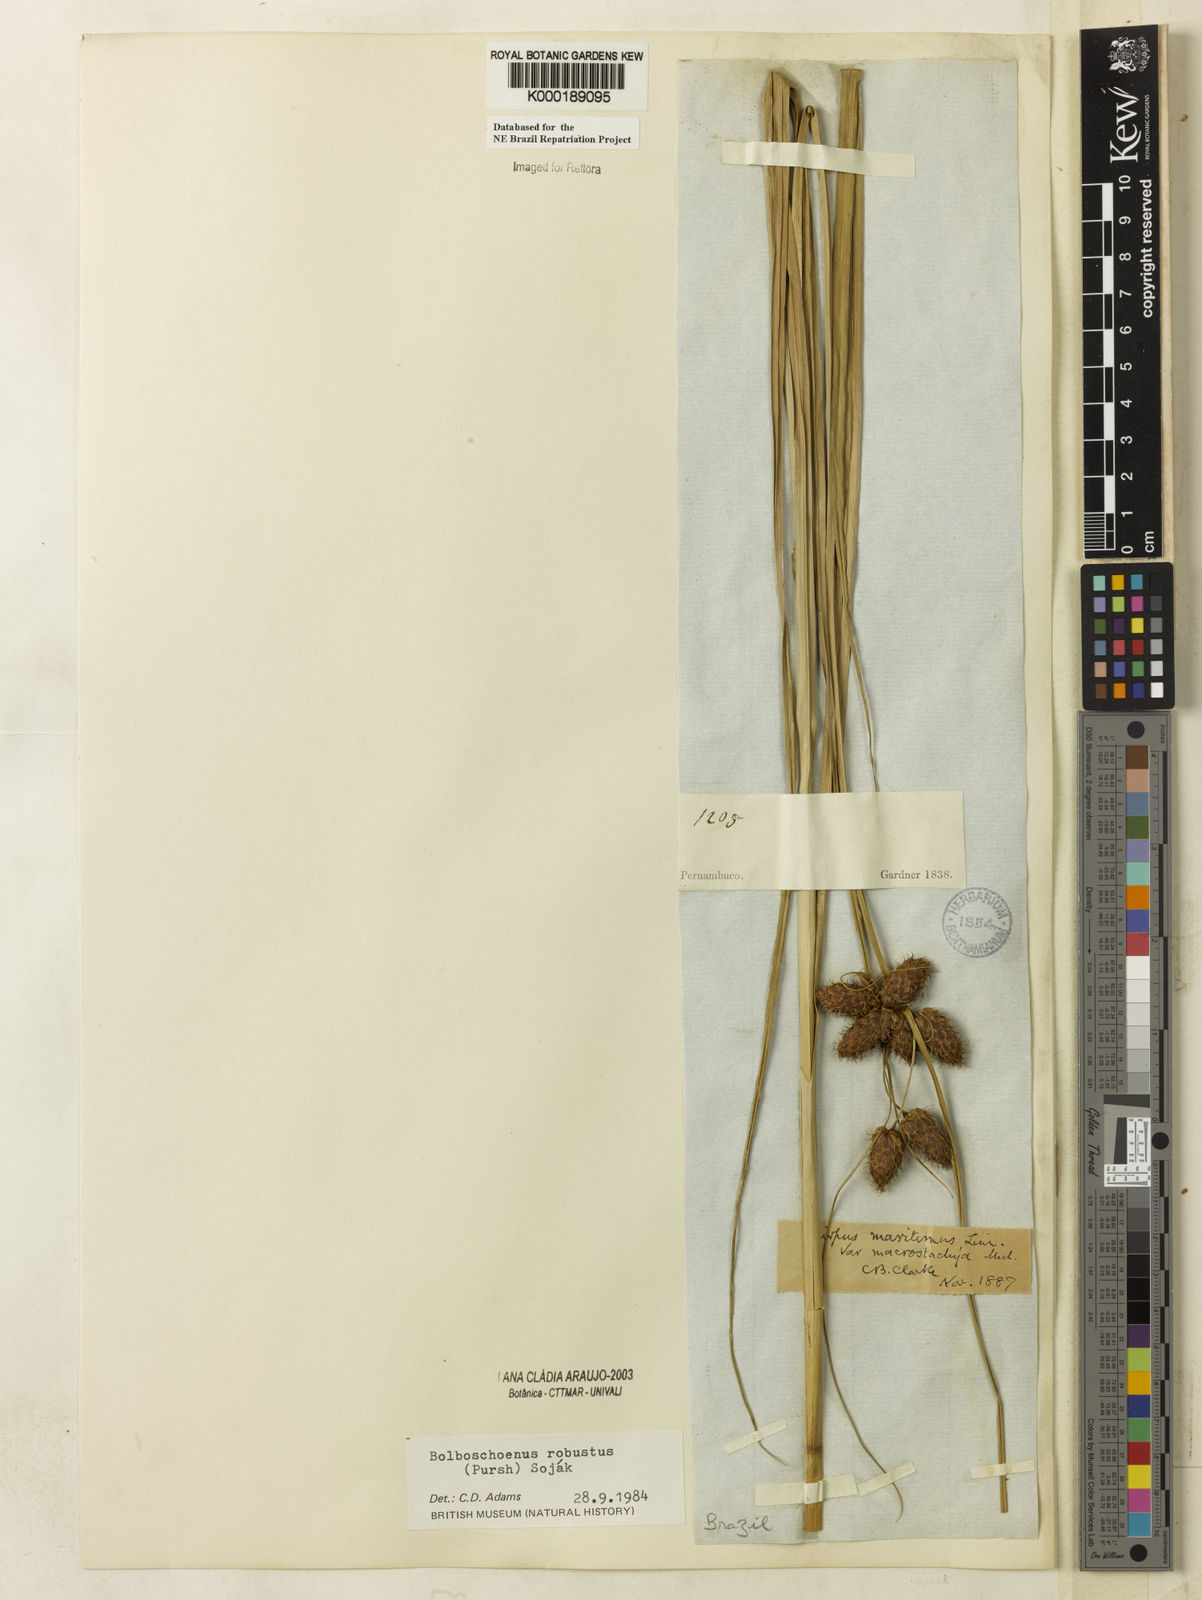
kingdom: Plantae
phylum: Tracheophyta
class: Liliopsida
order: Poales
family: Cyperaceae
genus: Bolboschoenus
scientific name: Bolboschoenus
